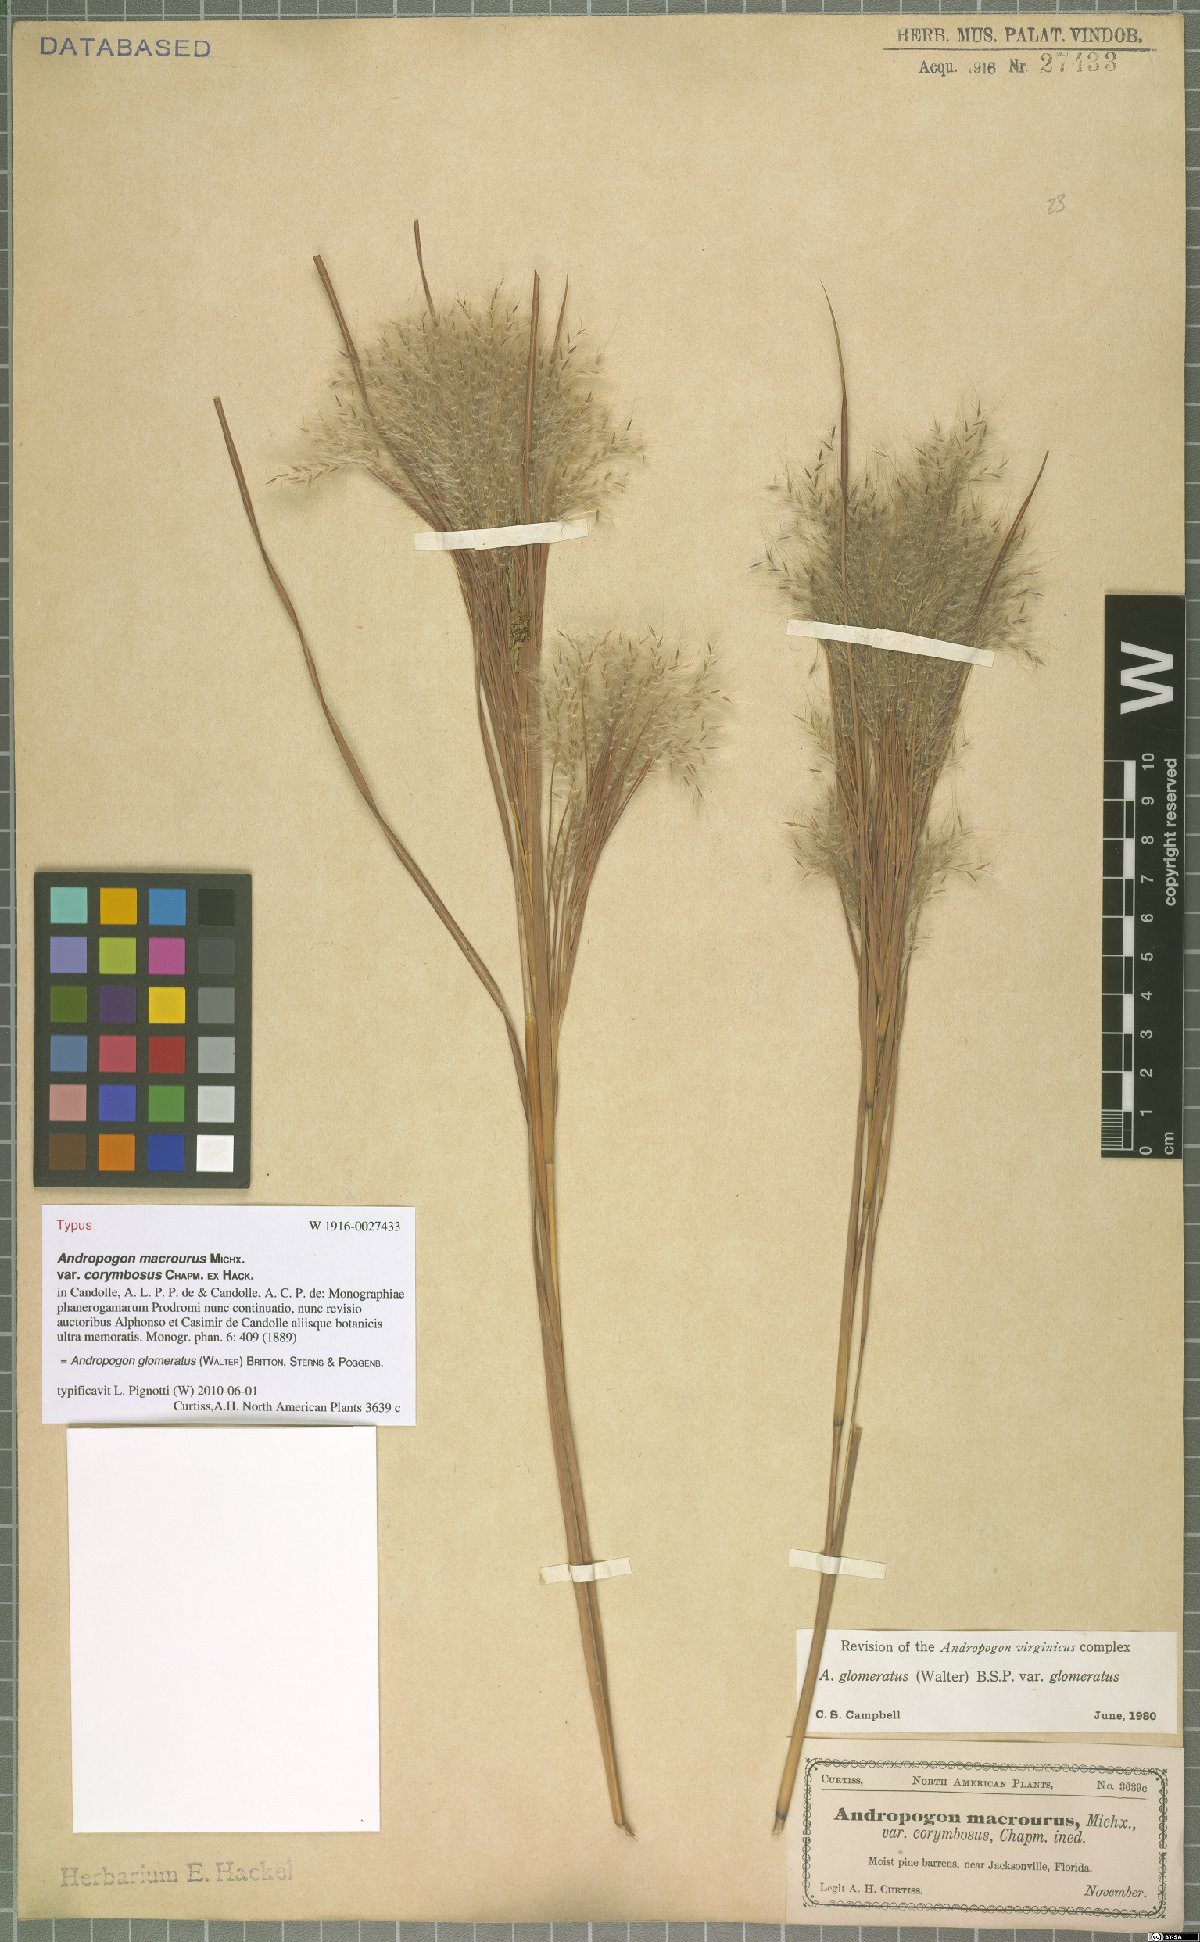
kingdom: Plantae
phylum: Tracheophyta
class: Liliopsida
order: Poales
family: Poaceae
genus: Andropogon
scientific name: Andropogon glomeratus
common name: Bushy beard grass
